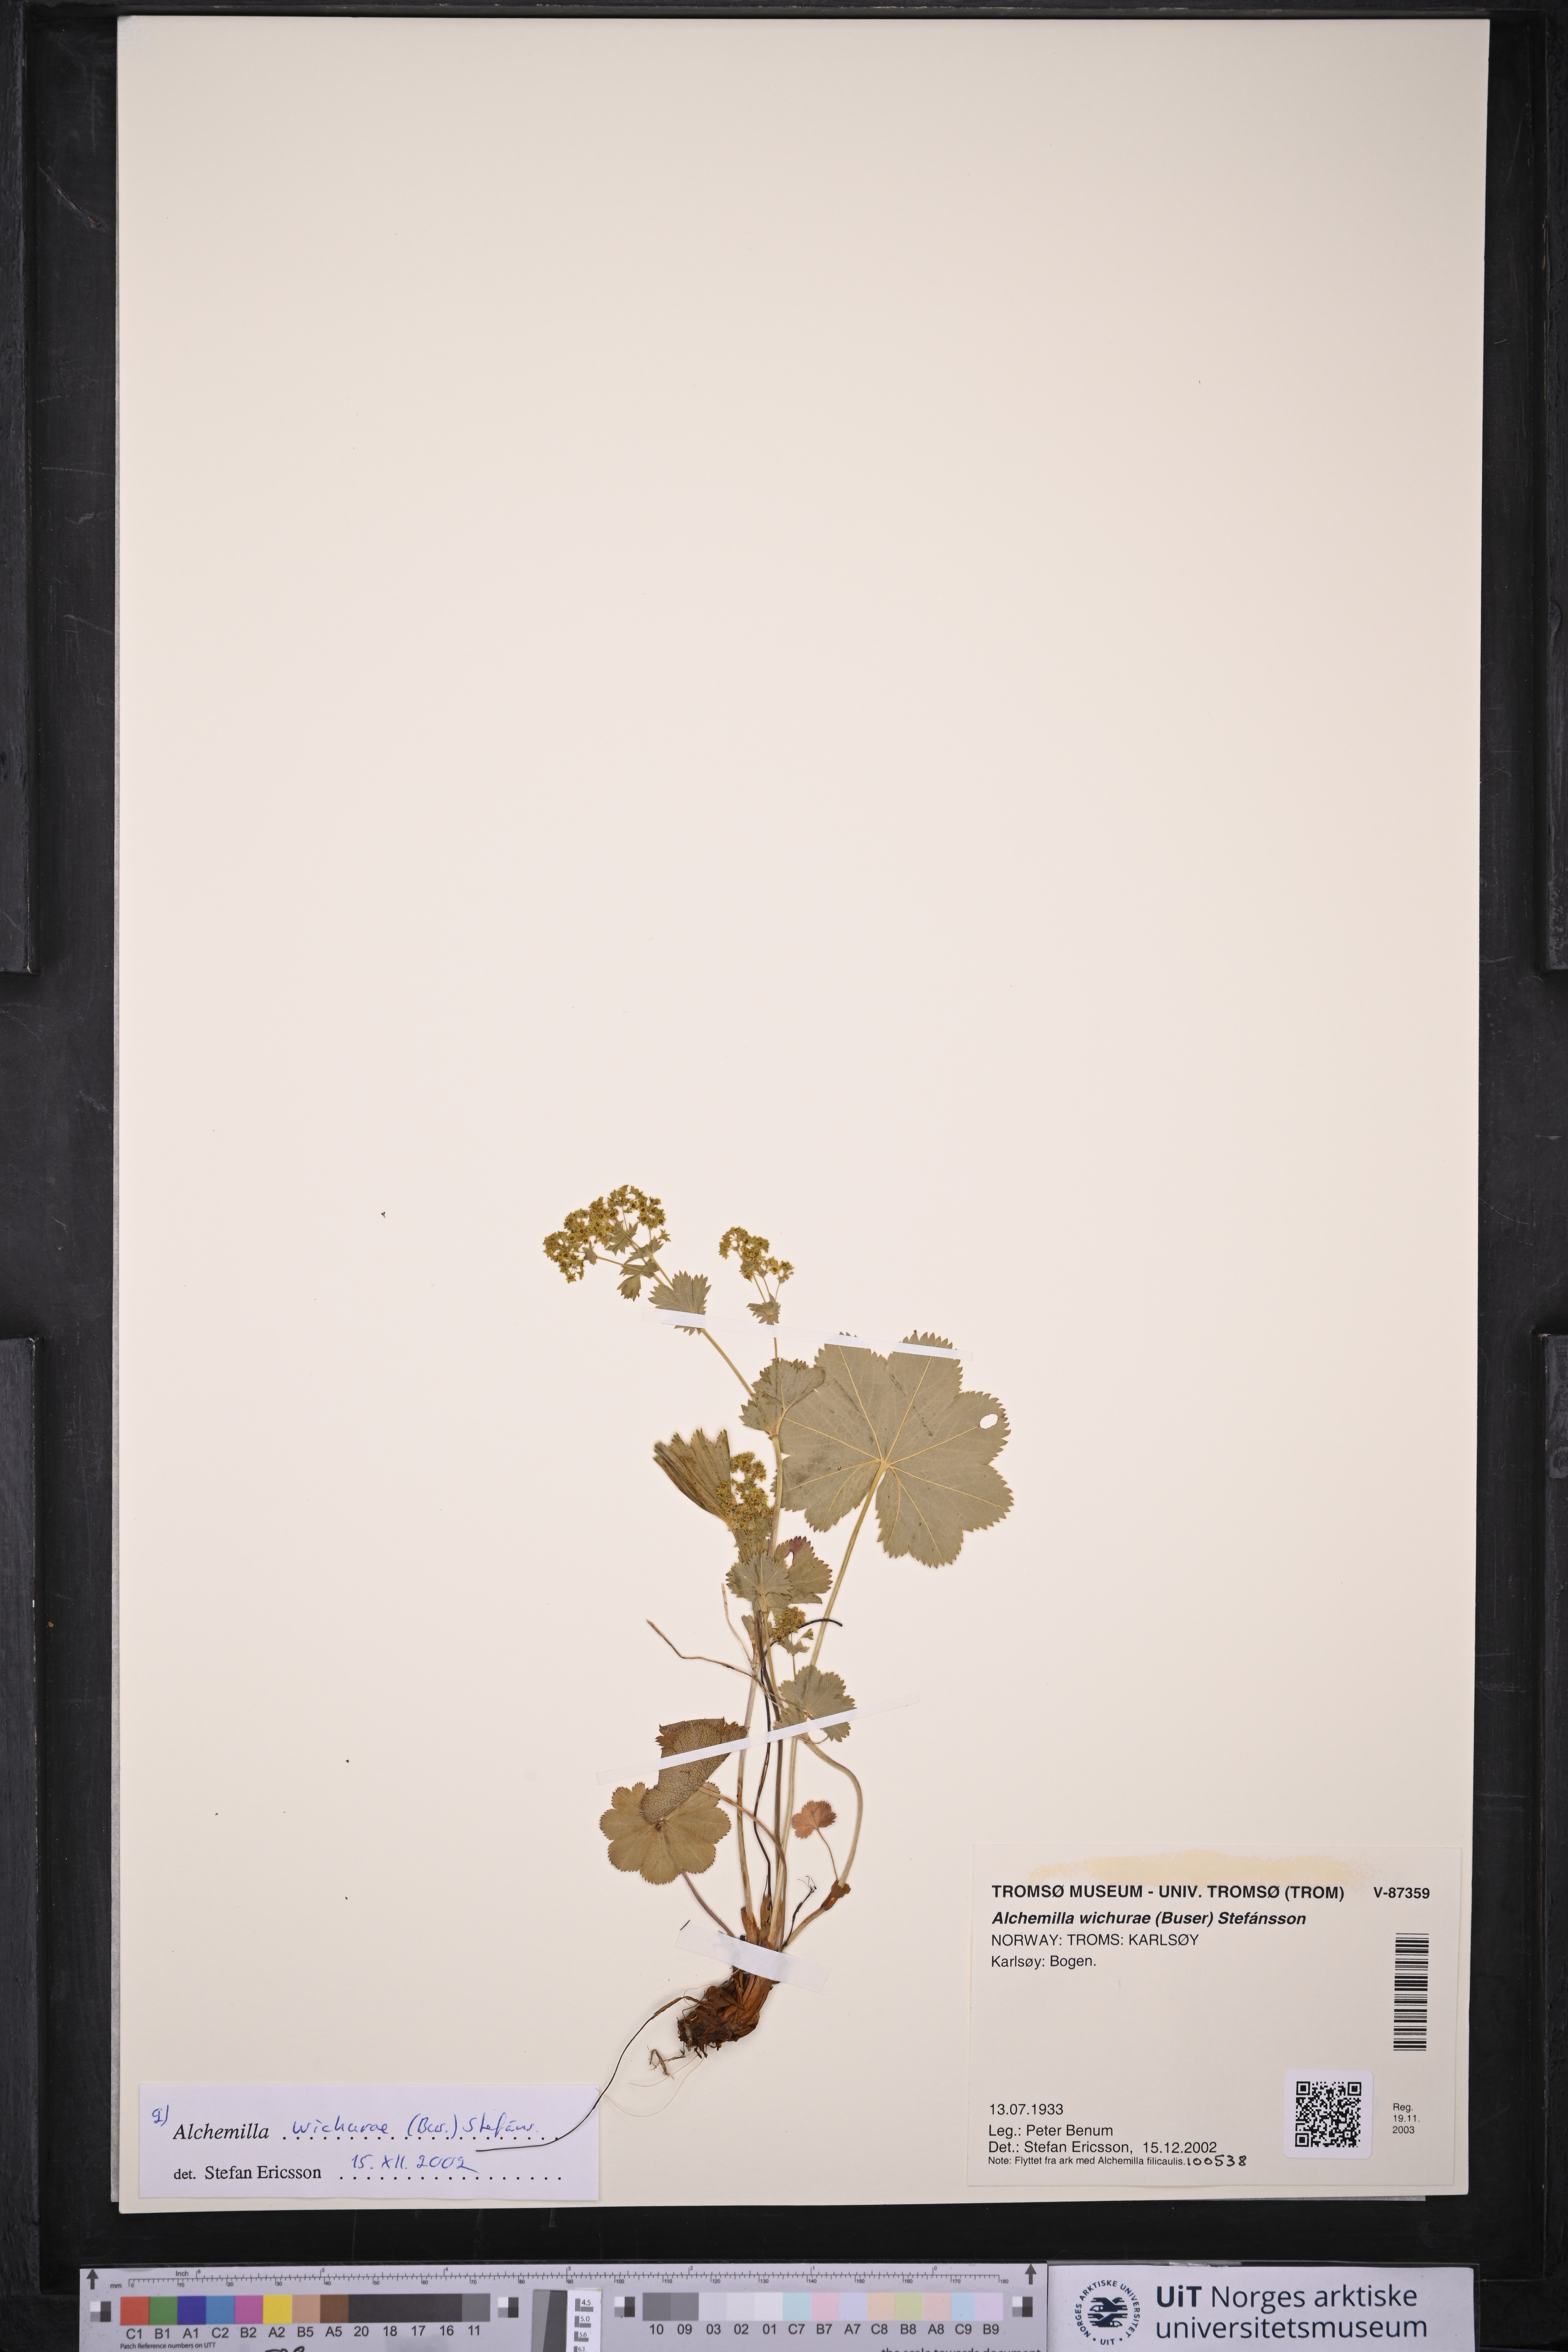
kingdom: Plantae
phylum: Tracheophyta
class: Magnoliopsida
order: Rosales
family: Rosaceae
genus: Alchemilla
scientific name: Alchemilla wichurae
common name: Rock lady's mantle
